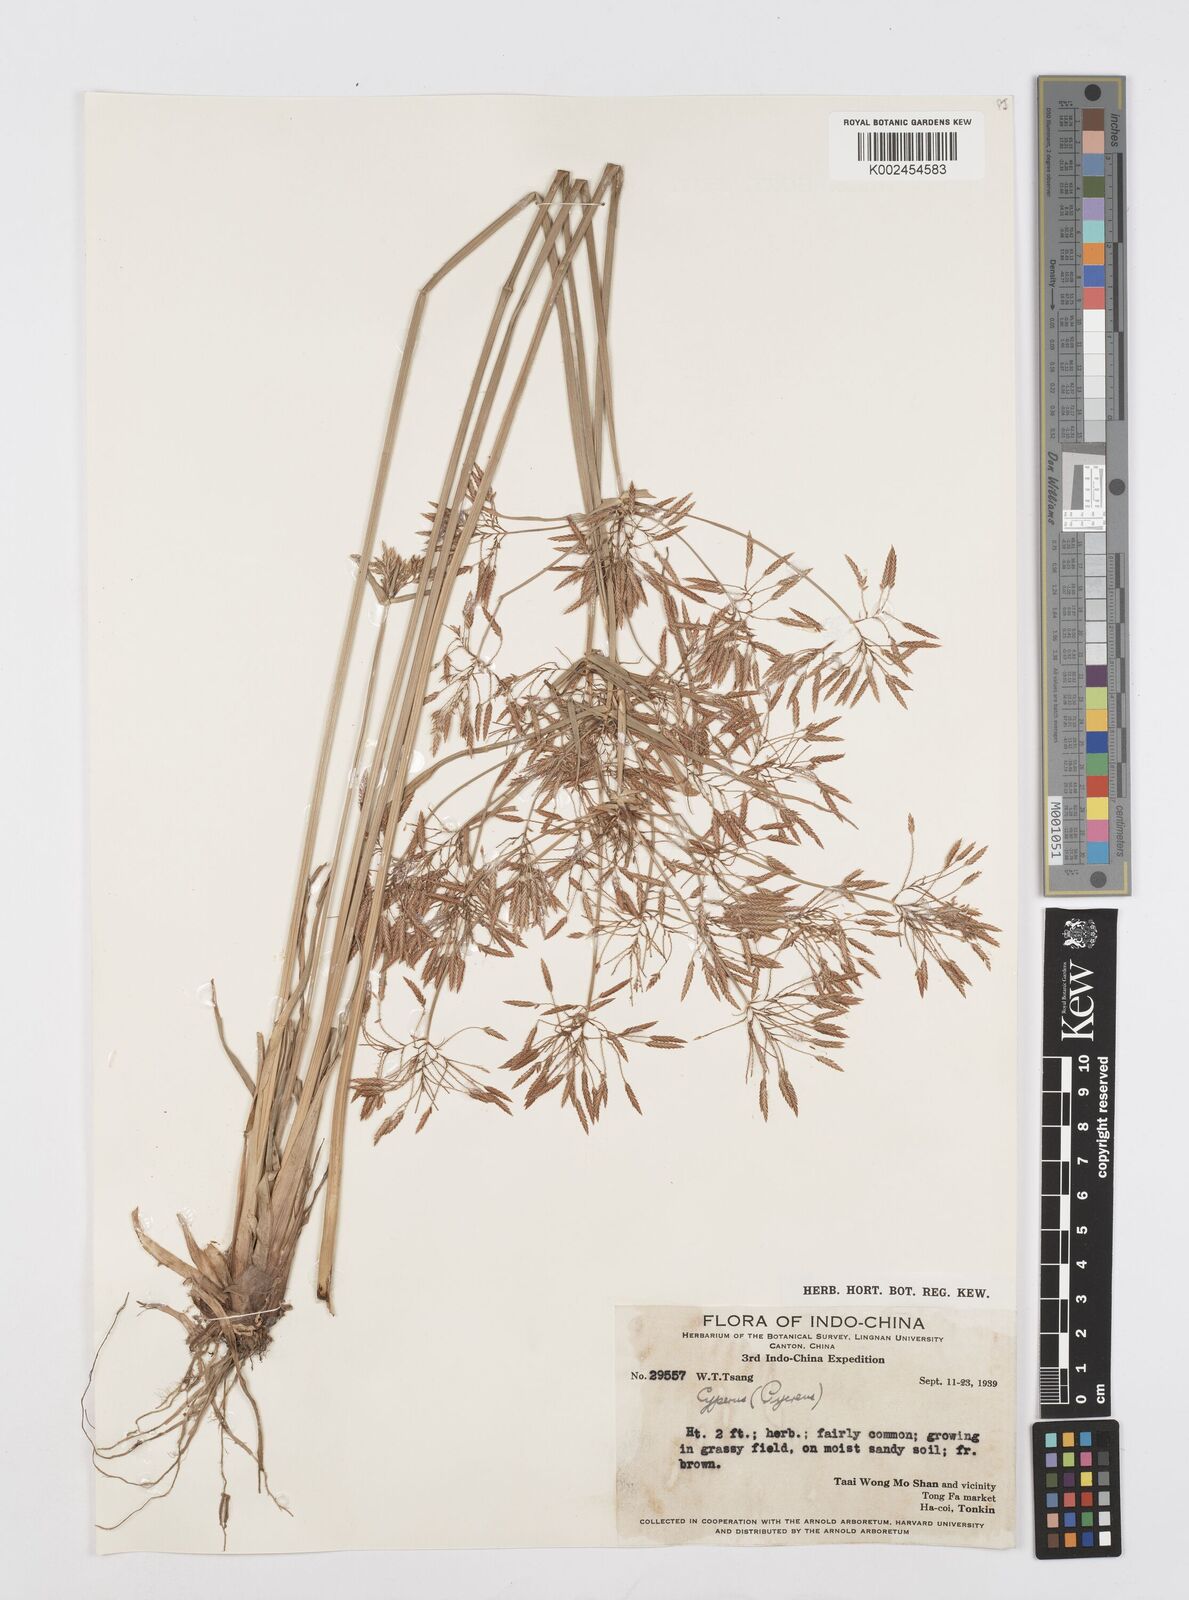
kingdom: Plantae
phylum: Tracheophyta
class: Liliopsida
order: Poales
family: Cyperaceae
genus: Cyperus
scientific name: Cyperus polystachyos
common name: Bunchy flat sedge
